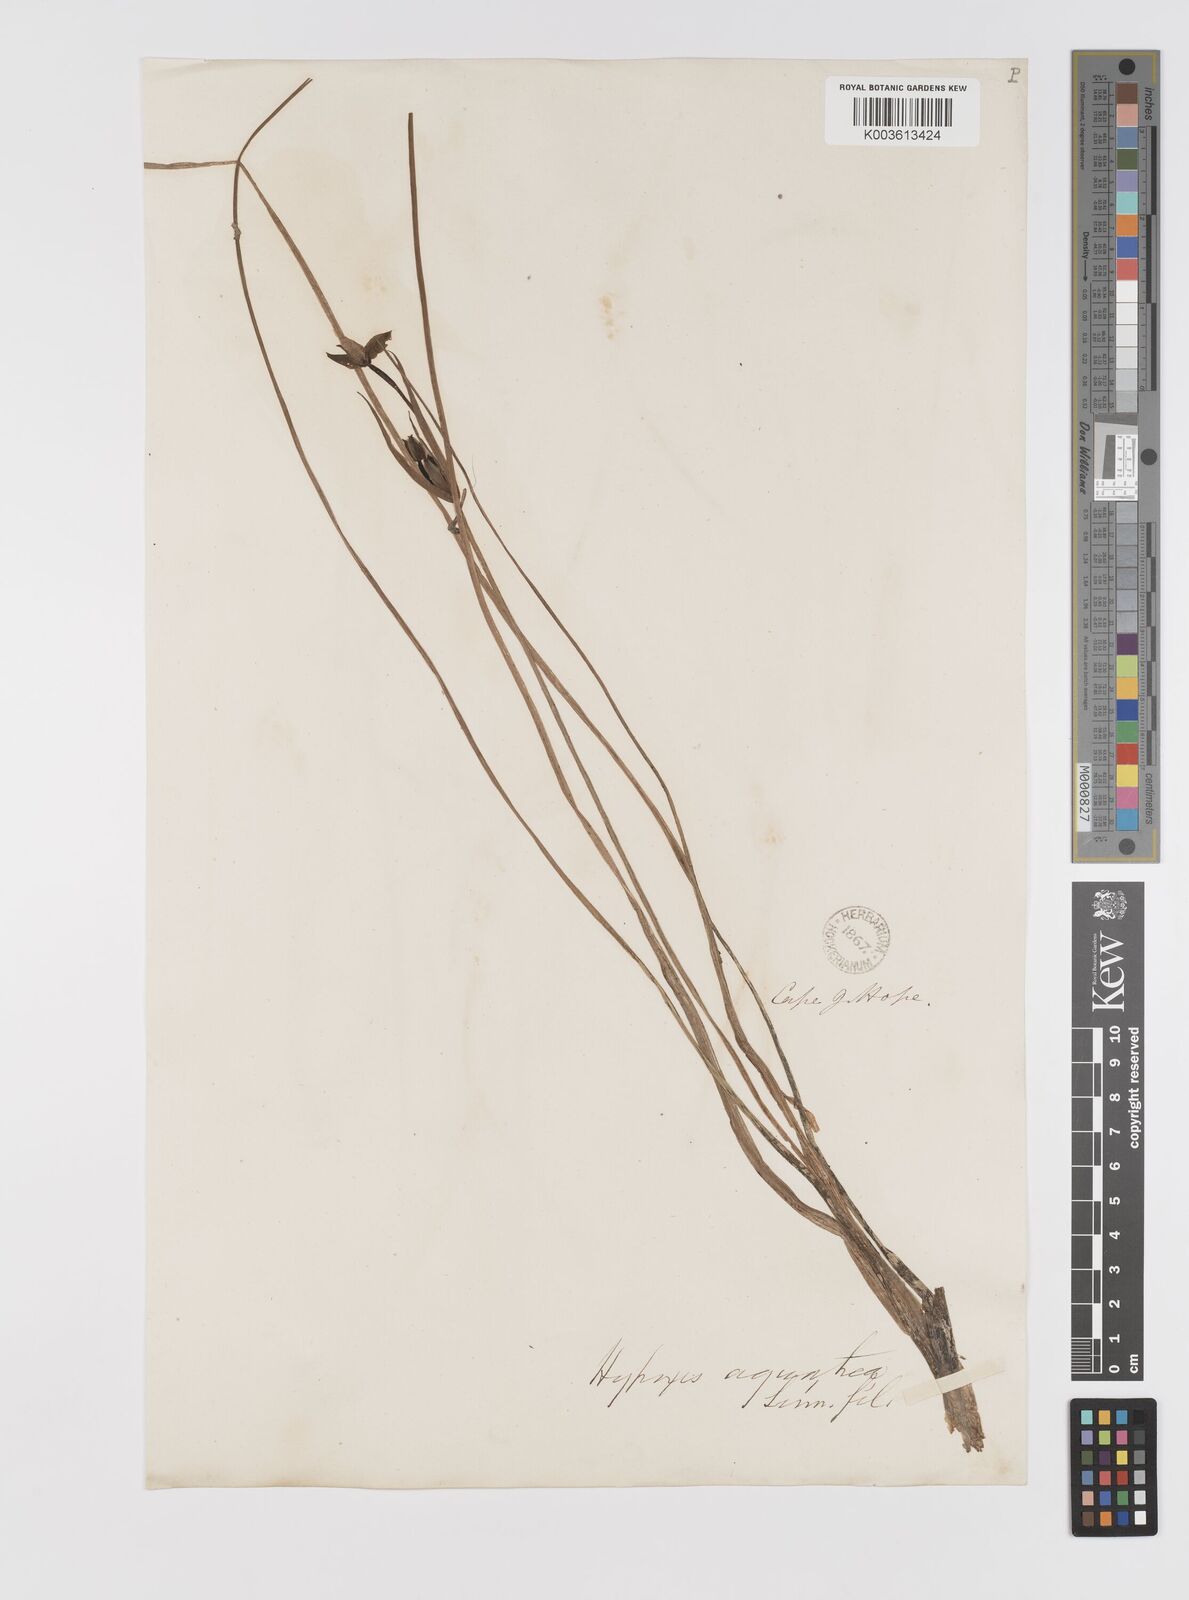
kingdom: Plantae
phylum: Tracheophyta
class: Liliopsida
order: Asparagales
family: Hypoxidaceae
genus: Pauridia
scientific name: Pauridia aquatica
